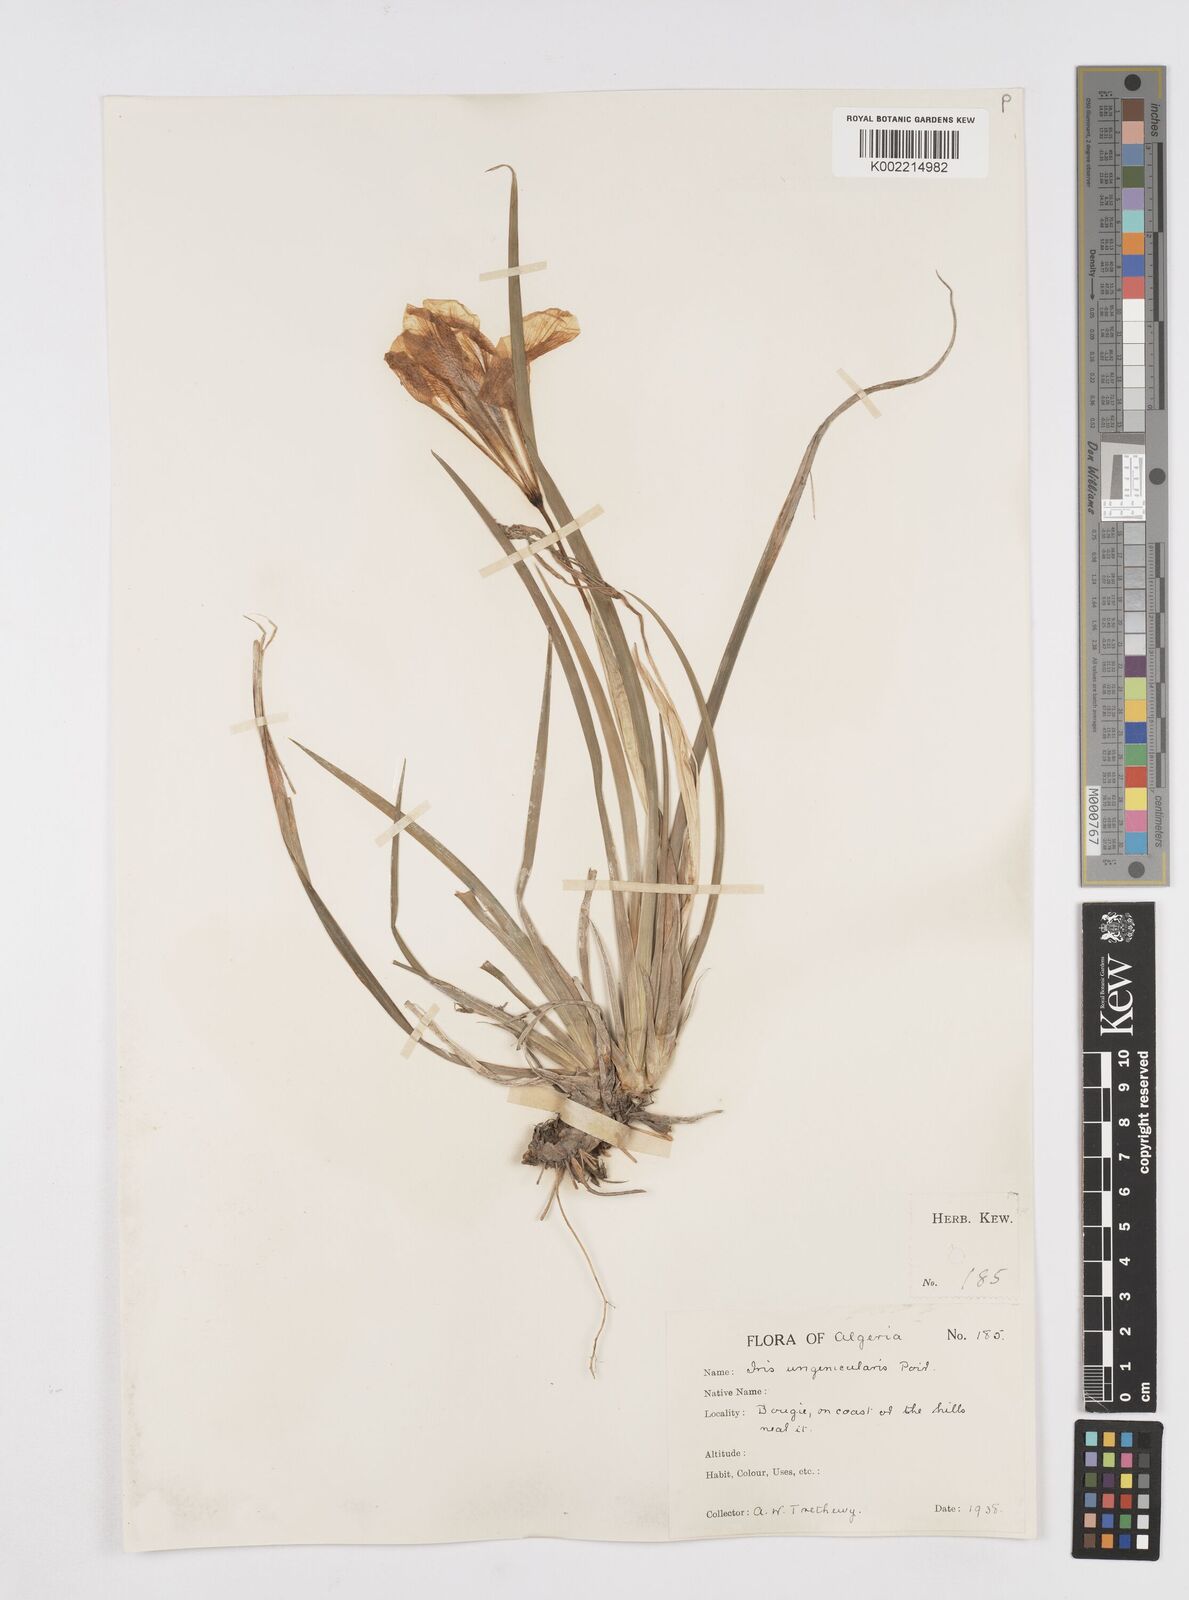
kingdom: Plantae
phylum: Tracheophyta
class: Liliopsida
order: Asparagales
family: Iridaceae
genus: Iris
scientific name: Iris unguicularis
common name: Algerian iris
